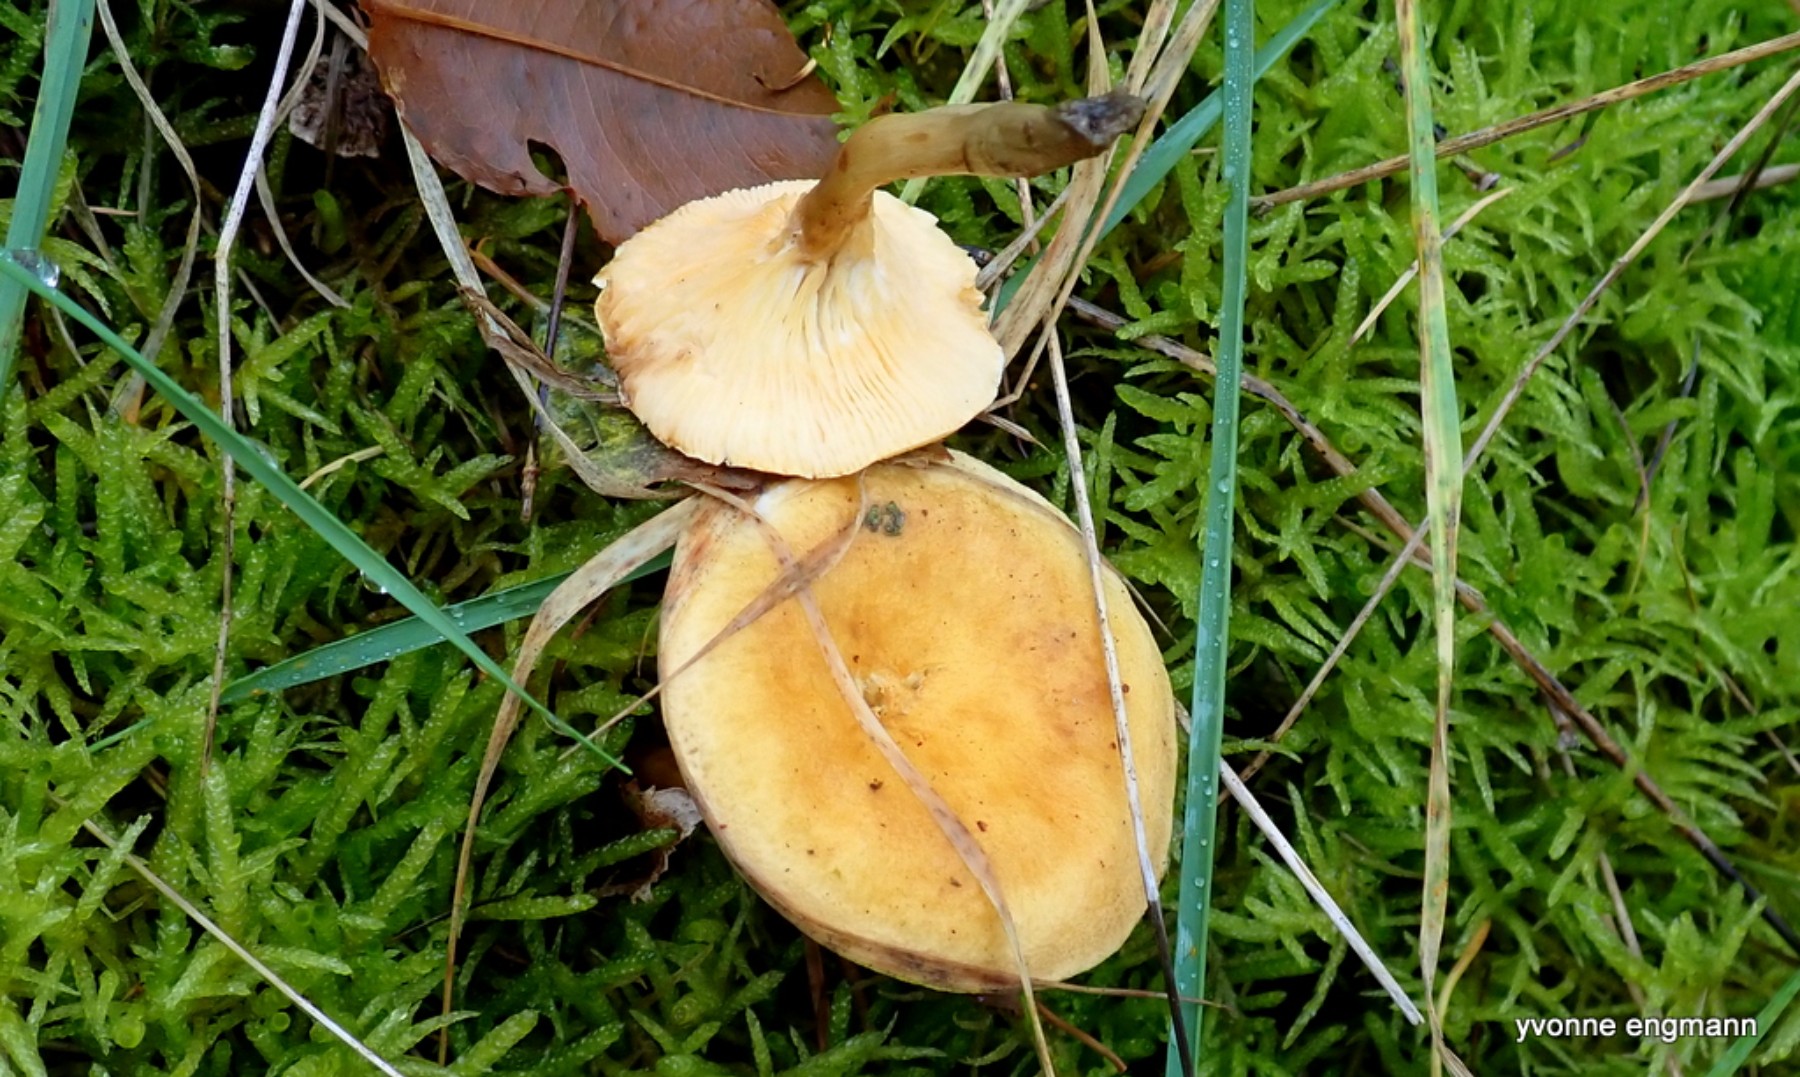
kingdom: Fungi
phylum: Basidiomycota
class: Agaricomycetes
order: Boletales
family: Hygrophoropsidaceae
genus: Hygrophoropsis
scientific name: Hygrophoropsis aurantiaca
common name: almindelig orangekantarel
